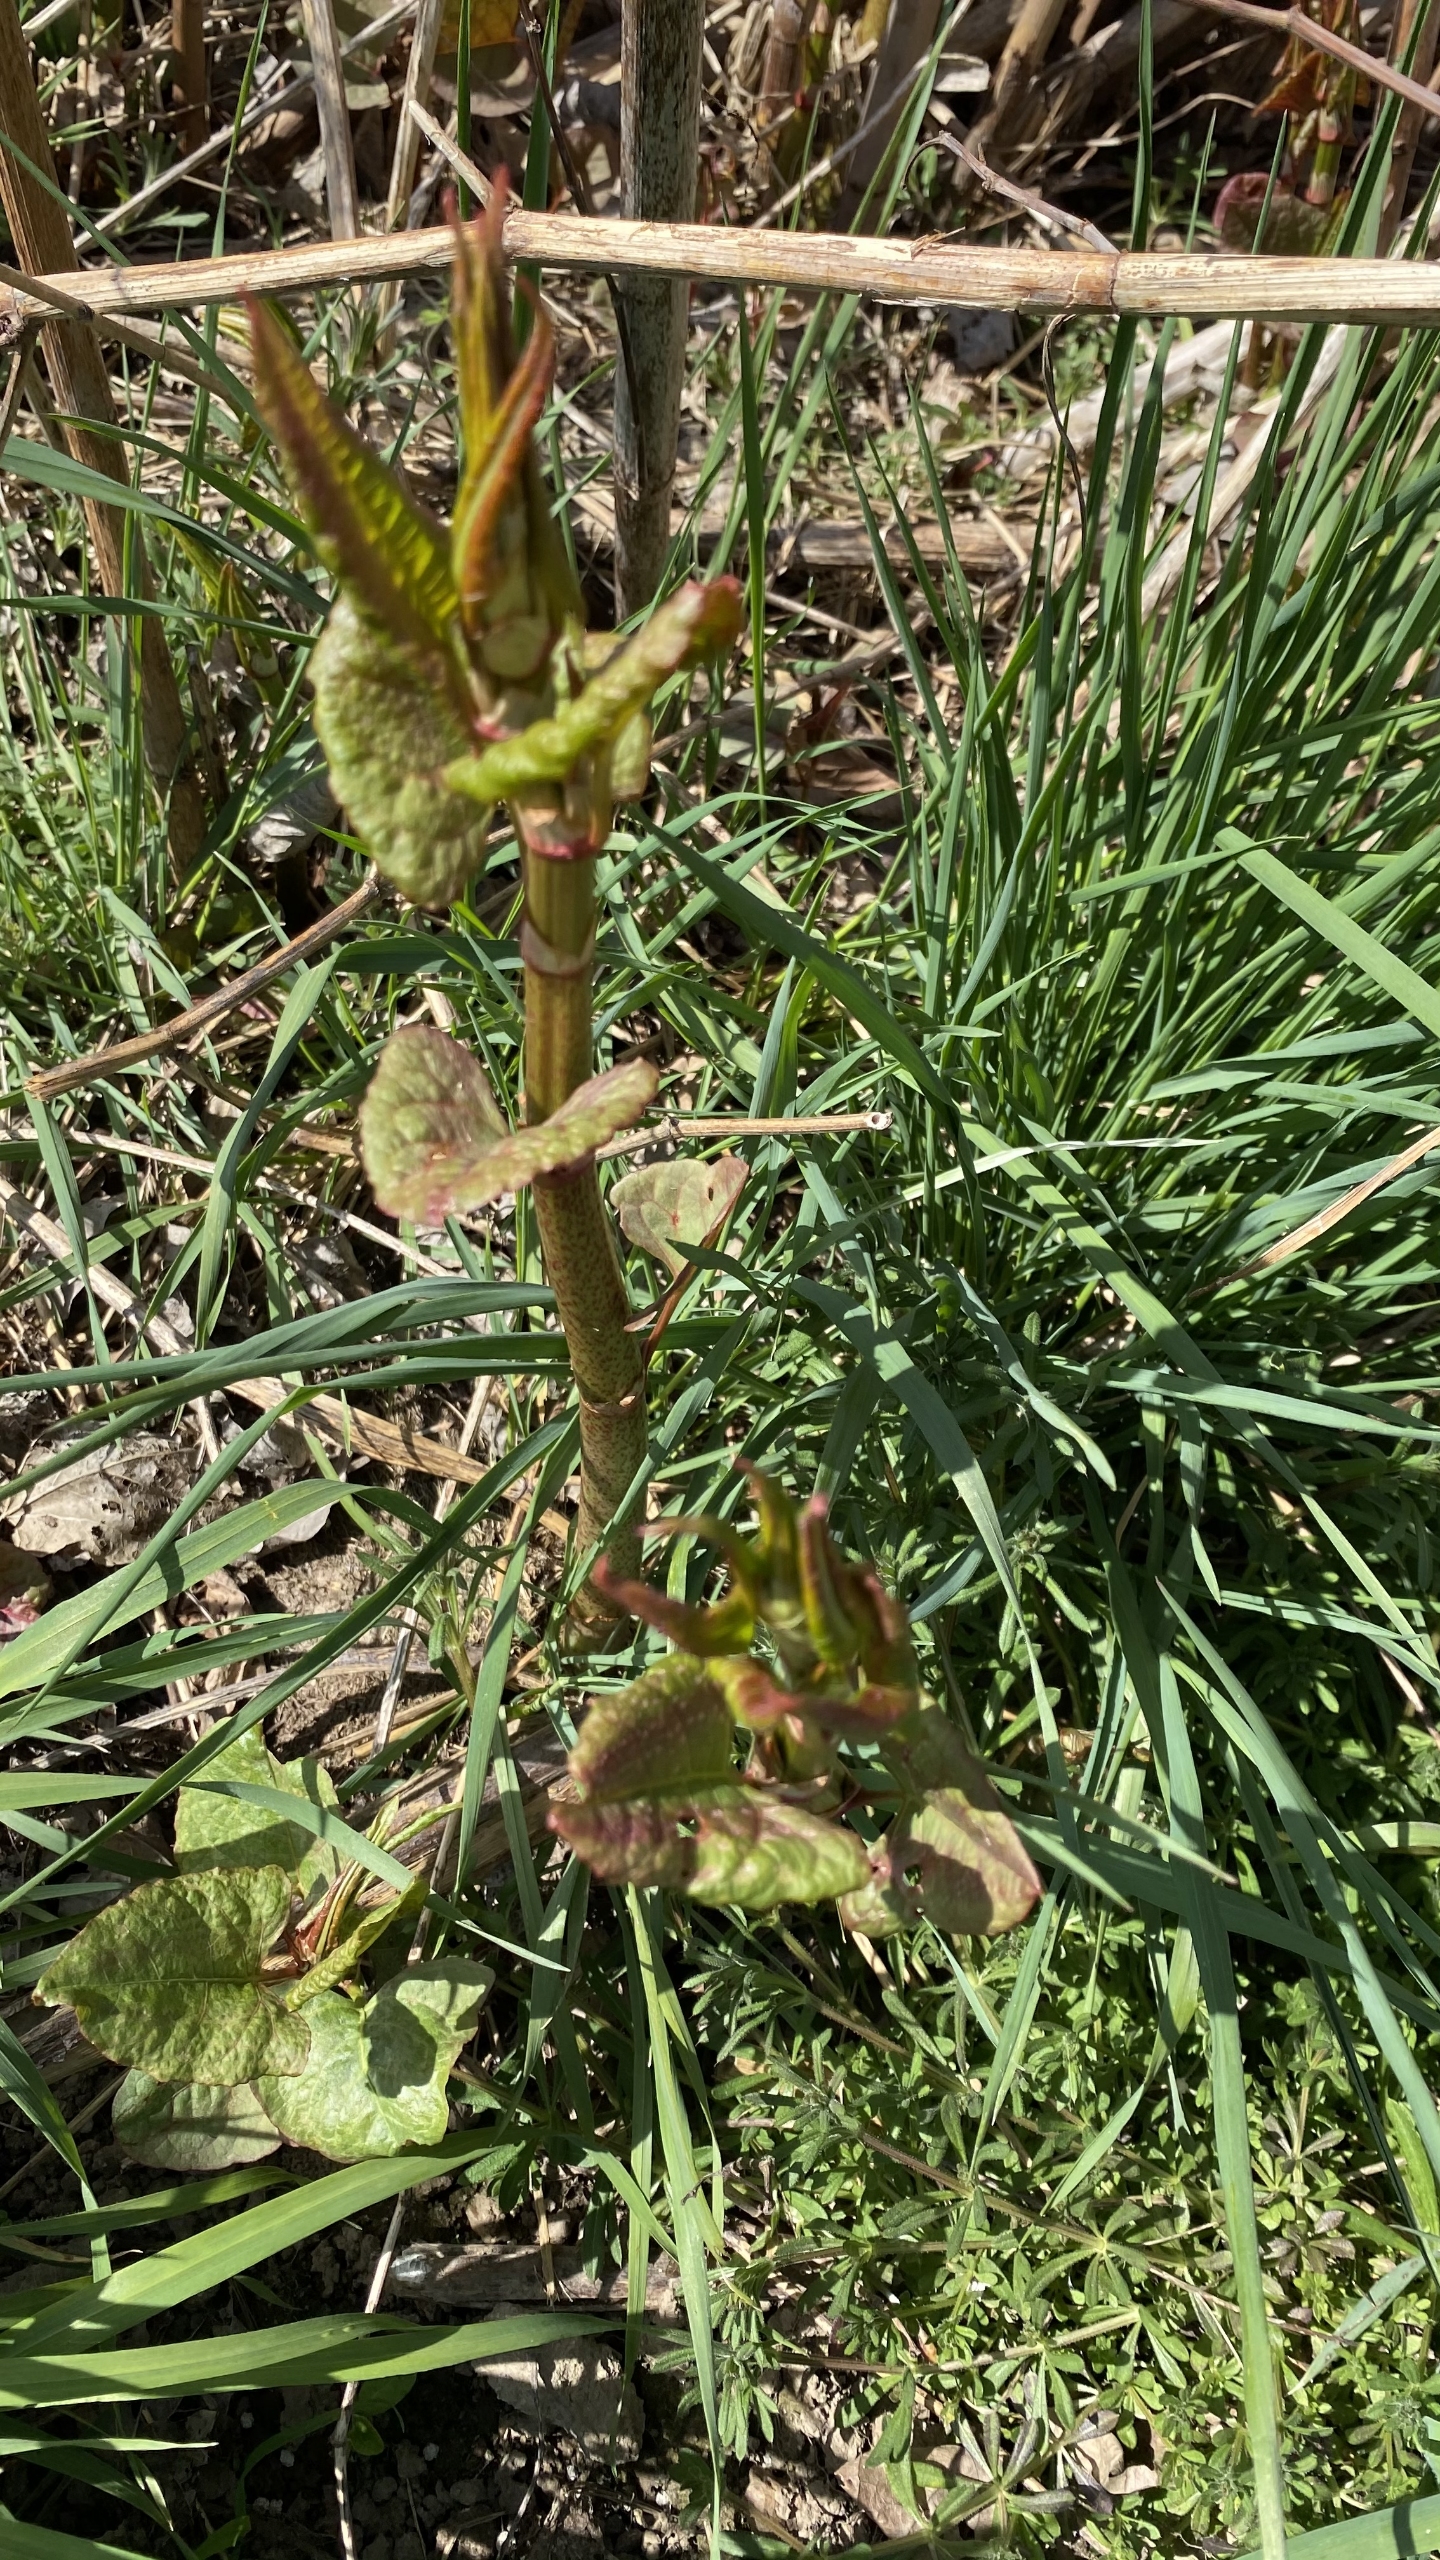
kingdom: Plantae
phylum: Tracheophyta
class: Magnoliopsida
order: Caryophyllales
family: Polygonaceae
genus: Reynoutria
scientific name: Reynoutria japonica
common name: Japan-pileurt
